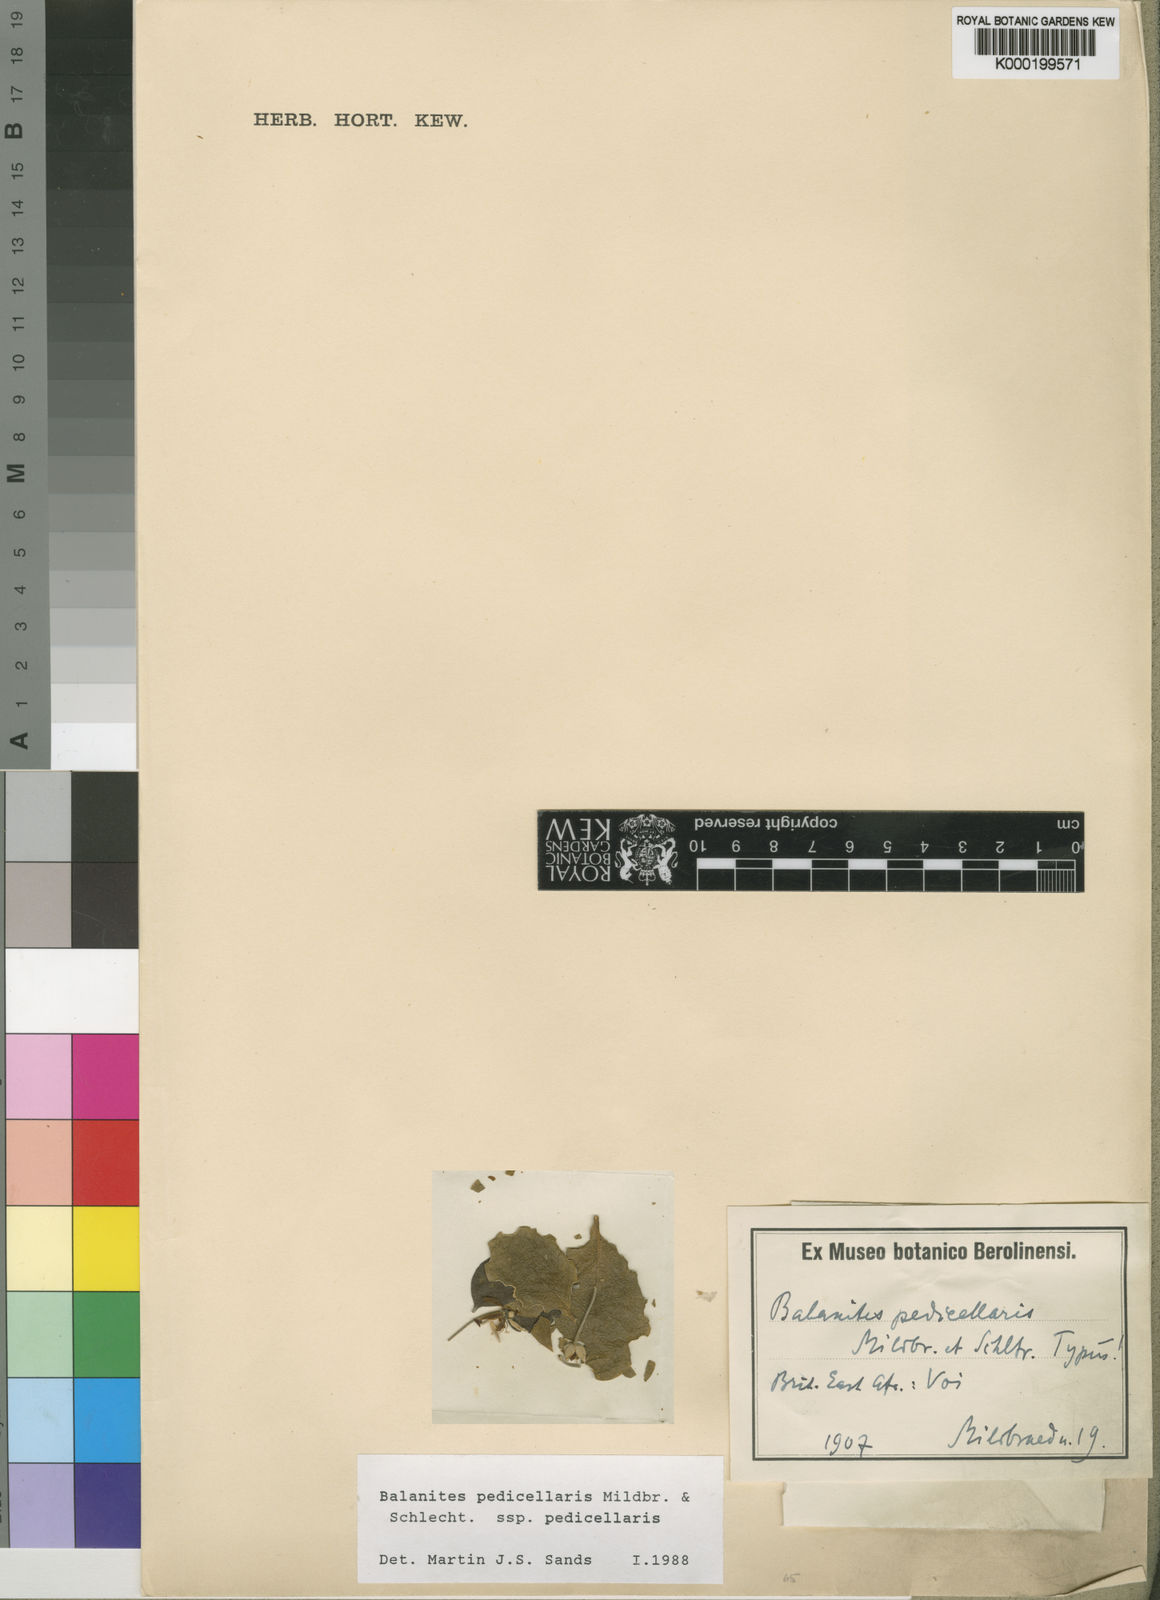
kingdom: Plantae
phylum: Tracheophyta
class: Magnoliopsida
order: Zygophyllales
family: Zygophyllaceae
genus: Balanites
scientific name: Balanites pedicellaris
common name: Small green-thorn
